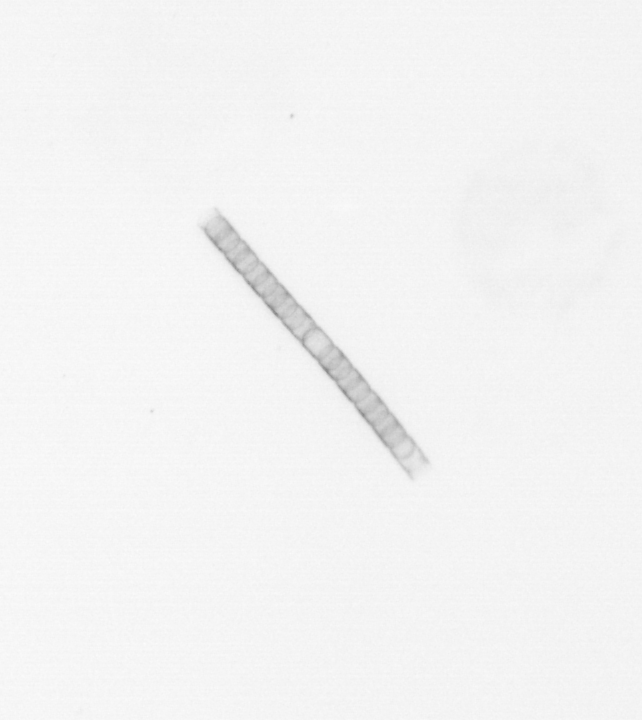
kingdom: Chromista
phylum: Ochrophyta
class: Bacillariophyceae
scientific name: Bacillariophyceae
